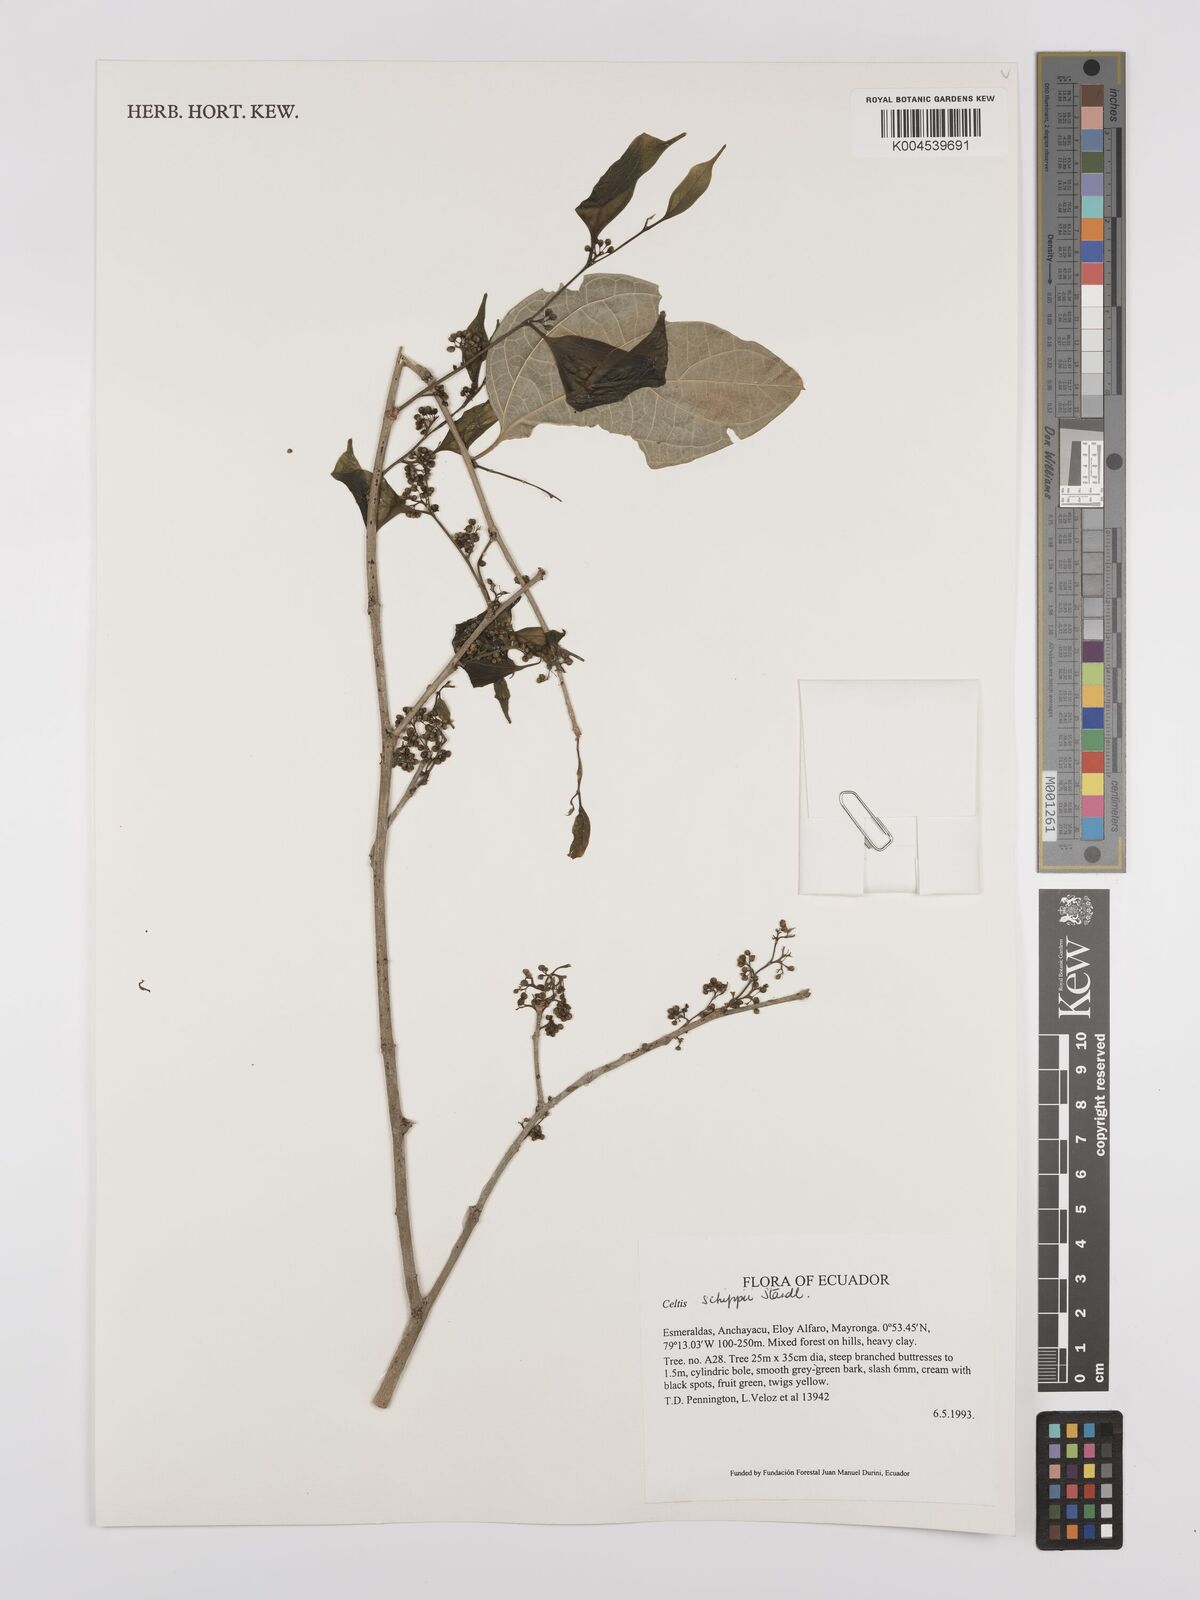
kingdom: Plantae
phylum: Tracheophyta
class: Magnoliopsida
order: Rosales
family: Cannabaceae
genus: Celtis
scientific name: Celtis schippii
